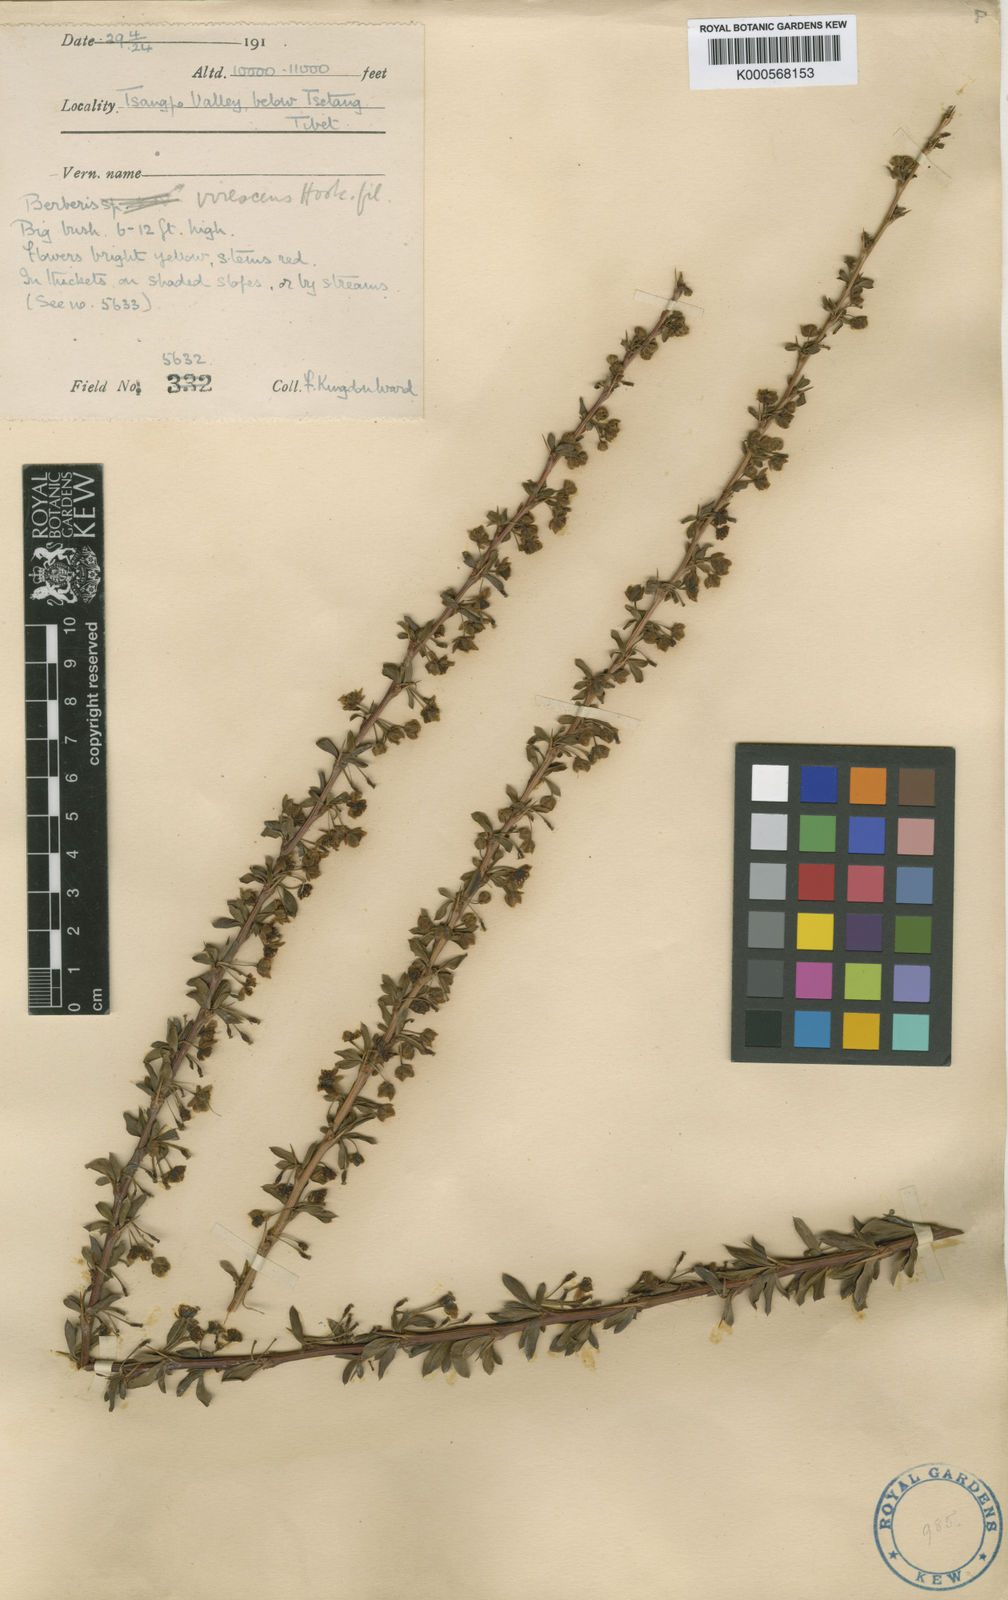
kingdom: Plantae
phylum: Tracheophyta
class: Magnoliopsida
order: Ranunculales
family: Berberidaceae
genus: Berberis
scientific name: Berberis virescens
